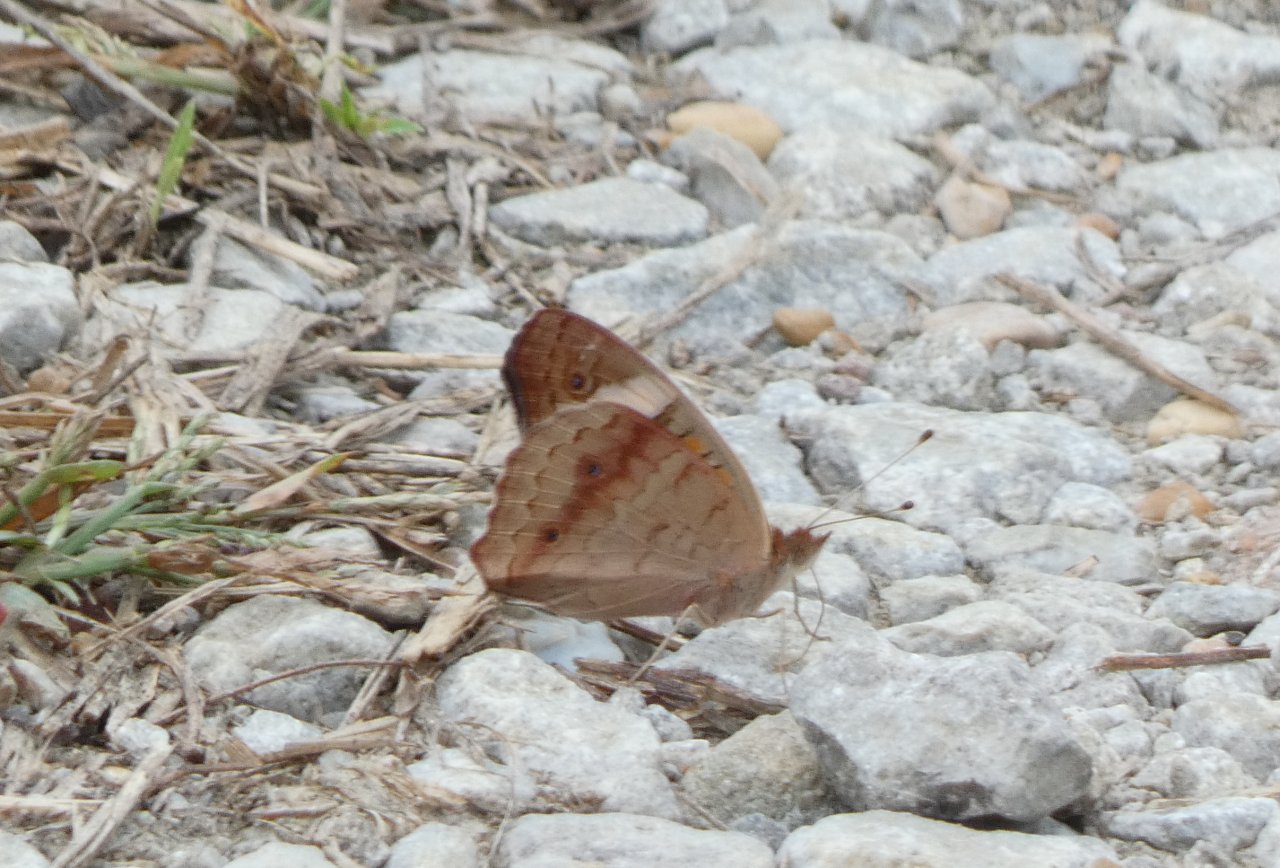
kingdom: Animalia
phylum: Arthropoda
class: Insecta
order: Lepidoptera
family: Nymphalidae
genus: Junonia
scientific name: Junonia coenia
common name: Common Buckeye
